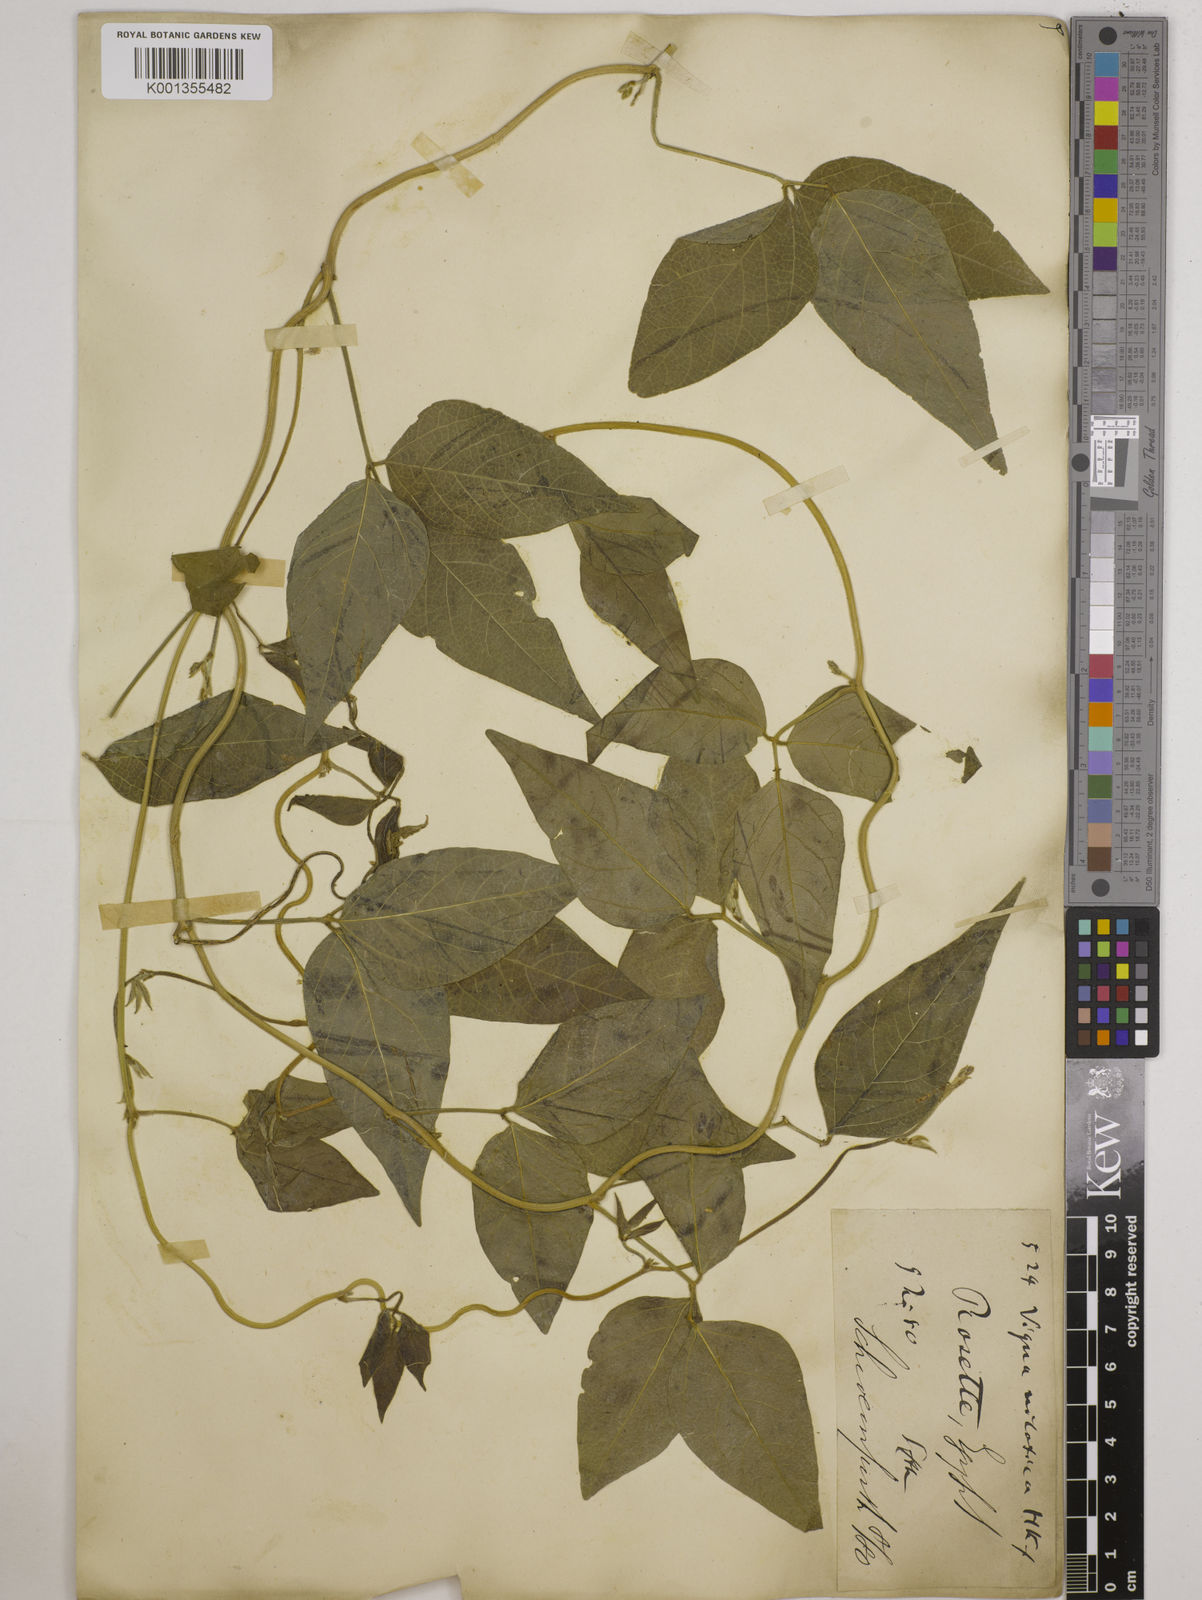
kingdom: Plantae
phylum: Tracheophyta
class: Magnoliopsida
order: Fabales
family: Fabaceae
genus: Vigna
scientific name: Vigna luteola
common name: Hairypod cowpea
